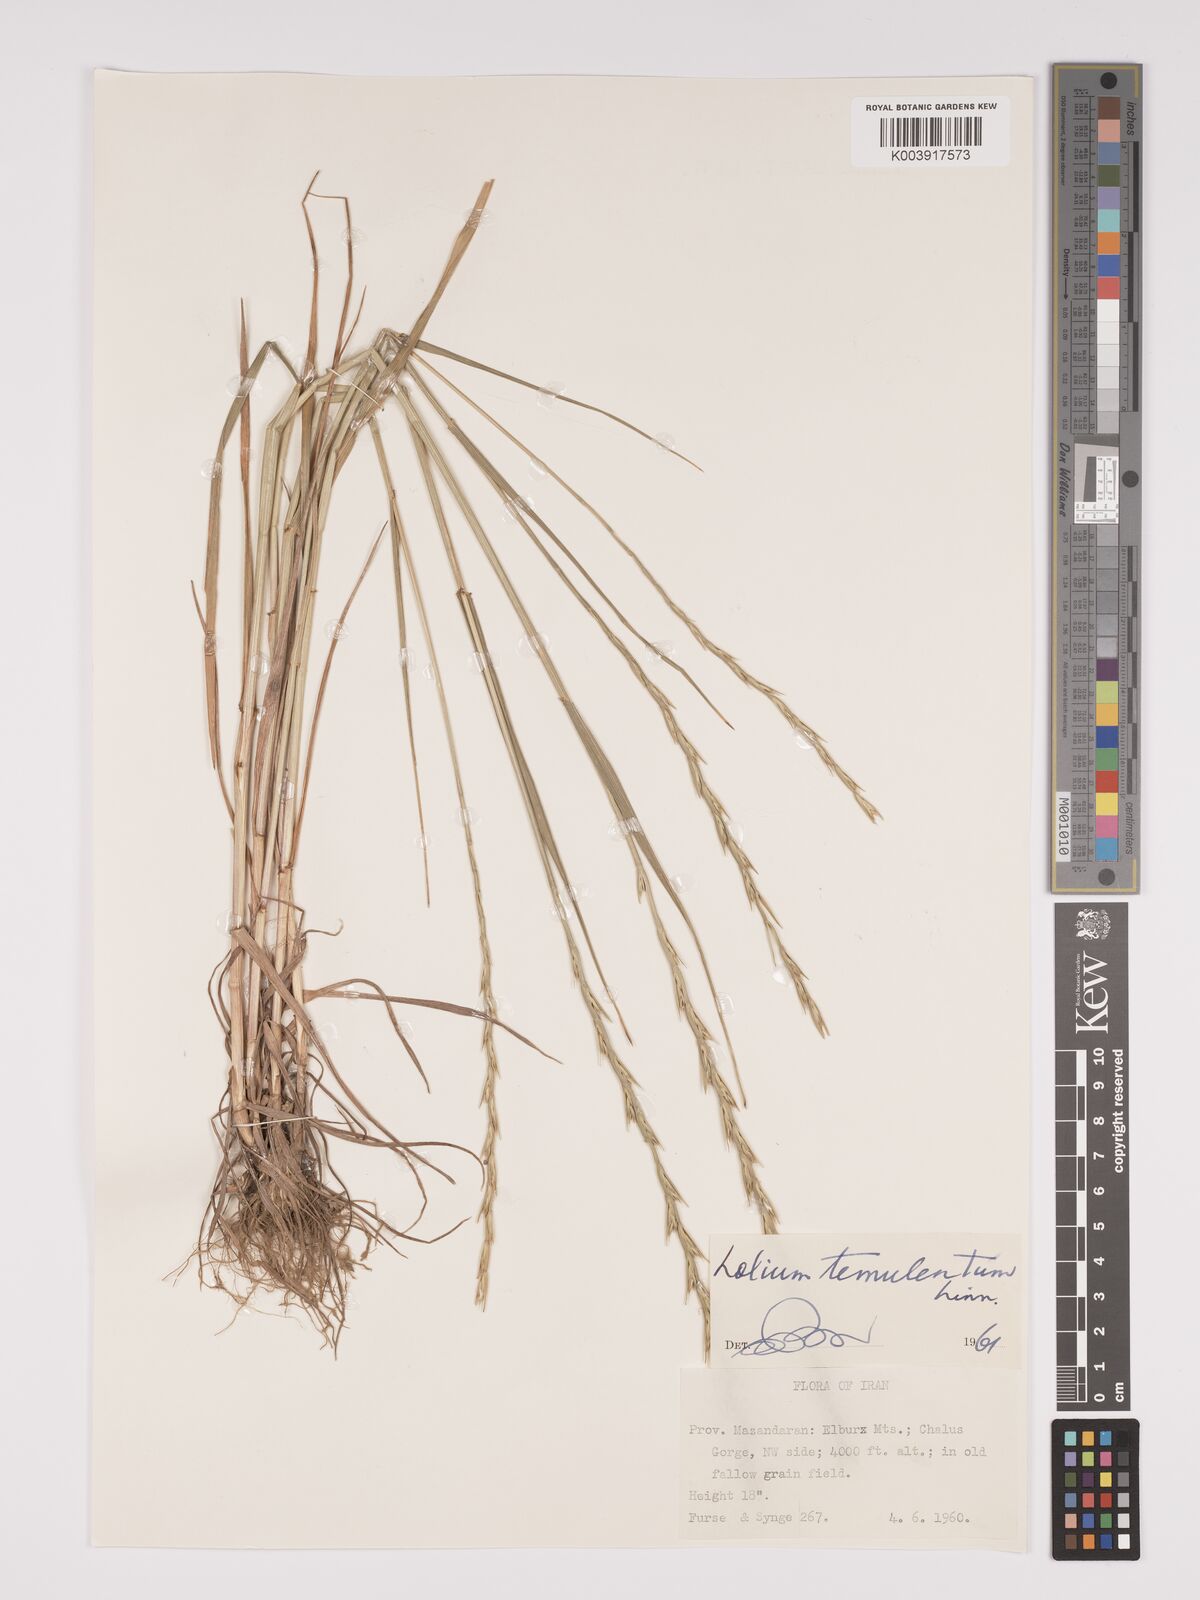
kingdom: Plantae
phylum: Tracheophyta
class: Liliopsida
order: Poales
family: Poaceae
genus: Lolium
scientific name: Lolium temulentum
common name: Darnel
